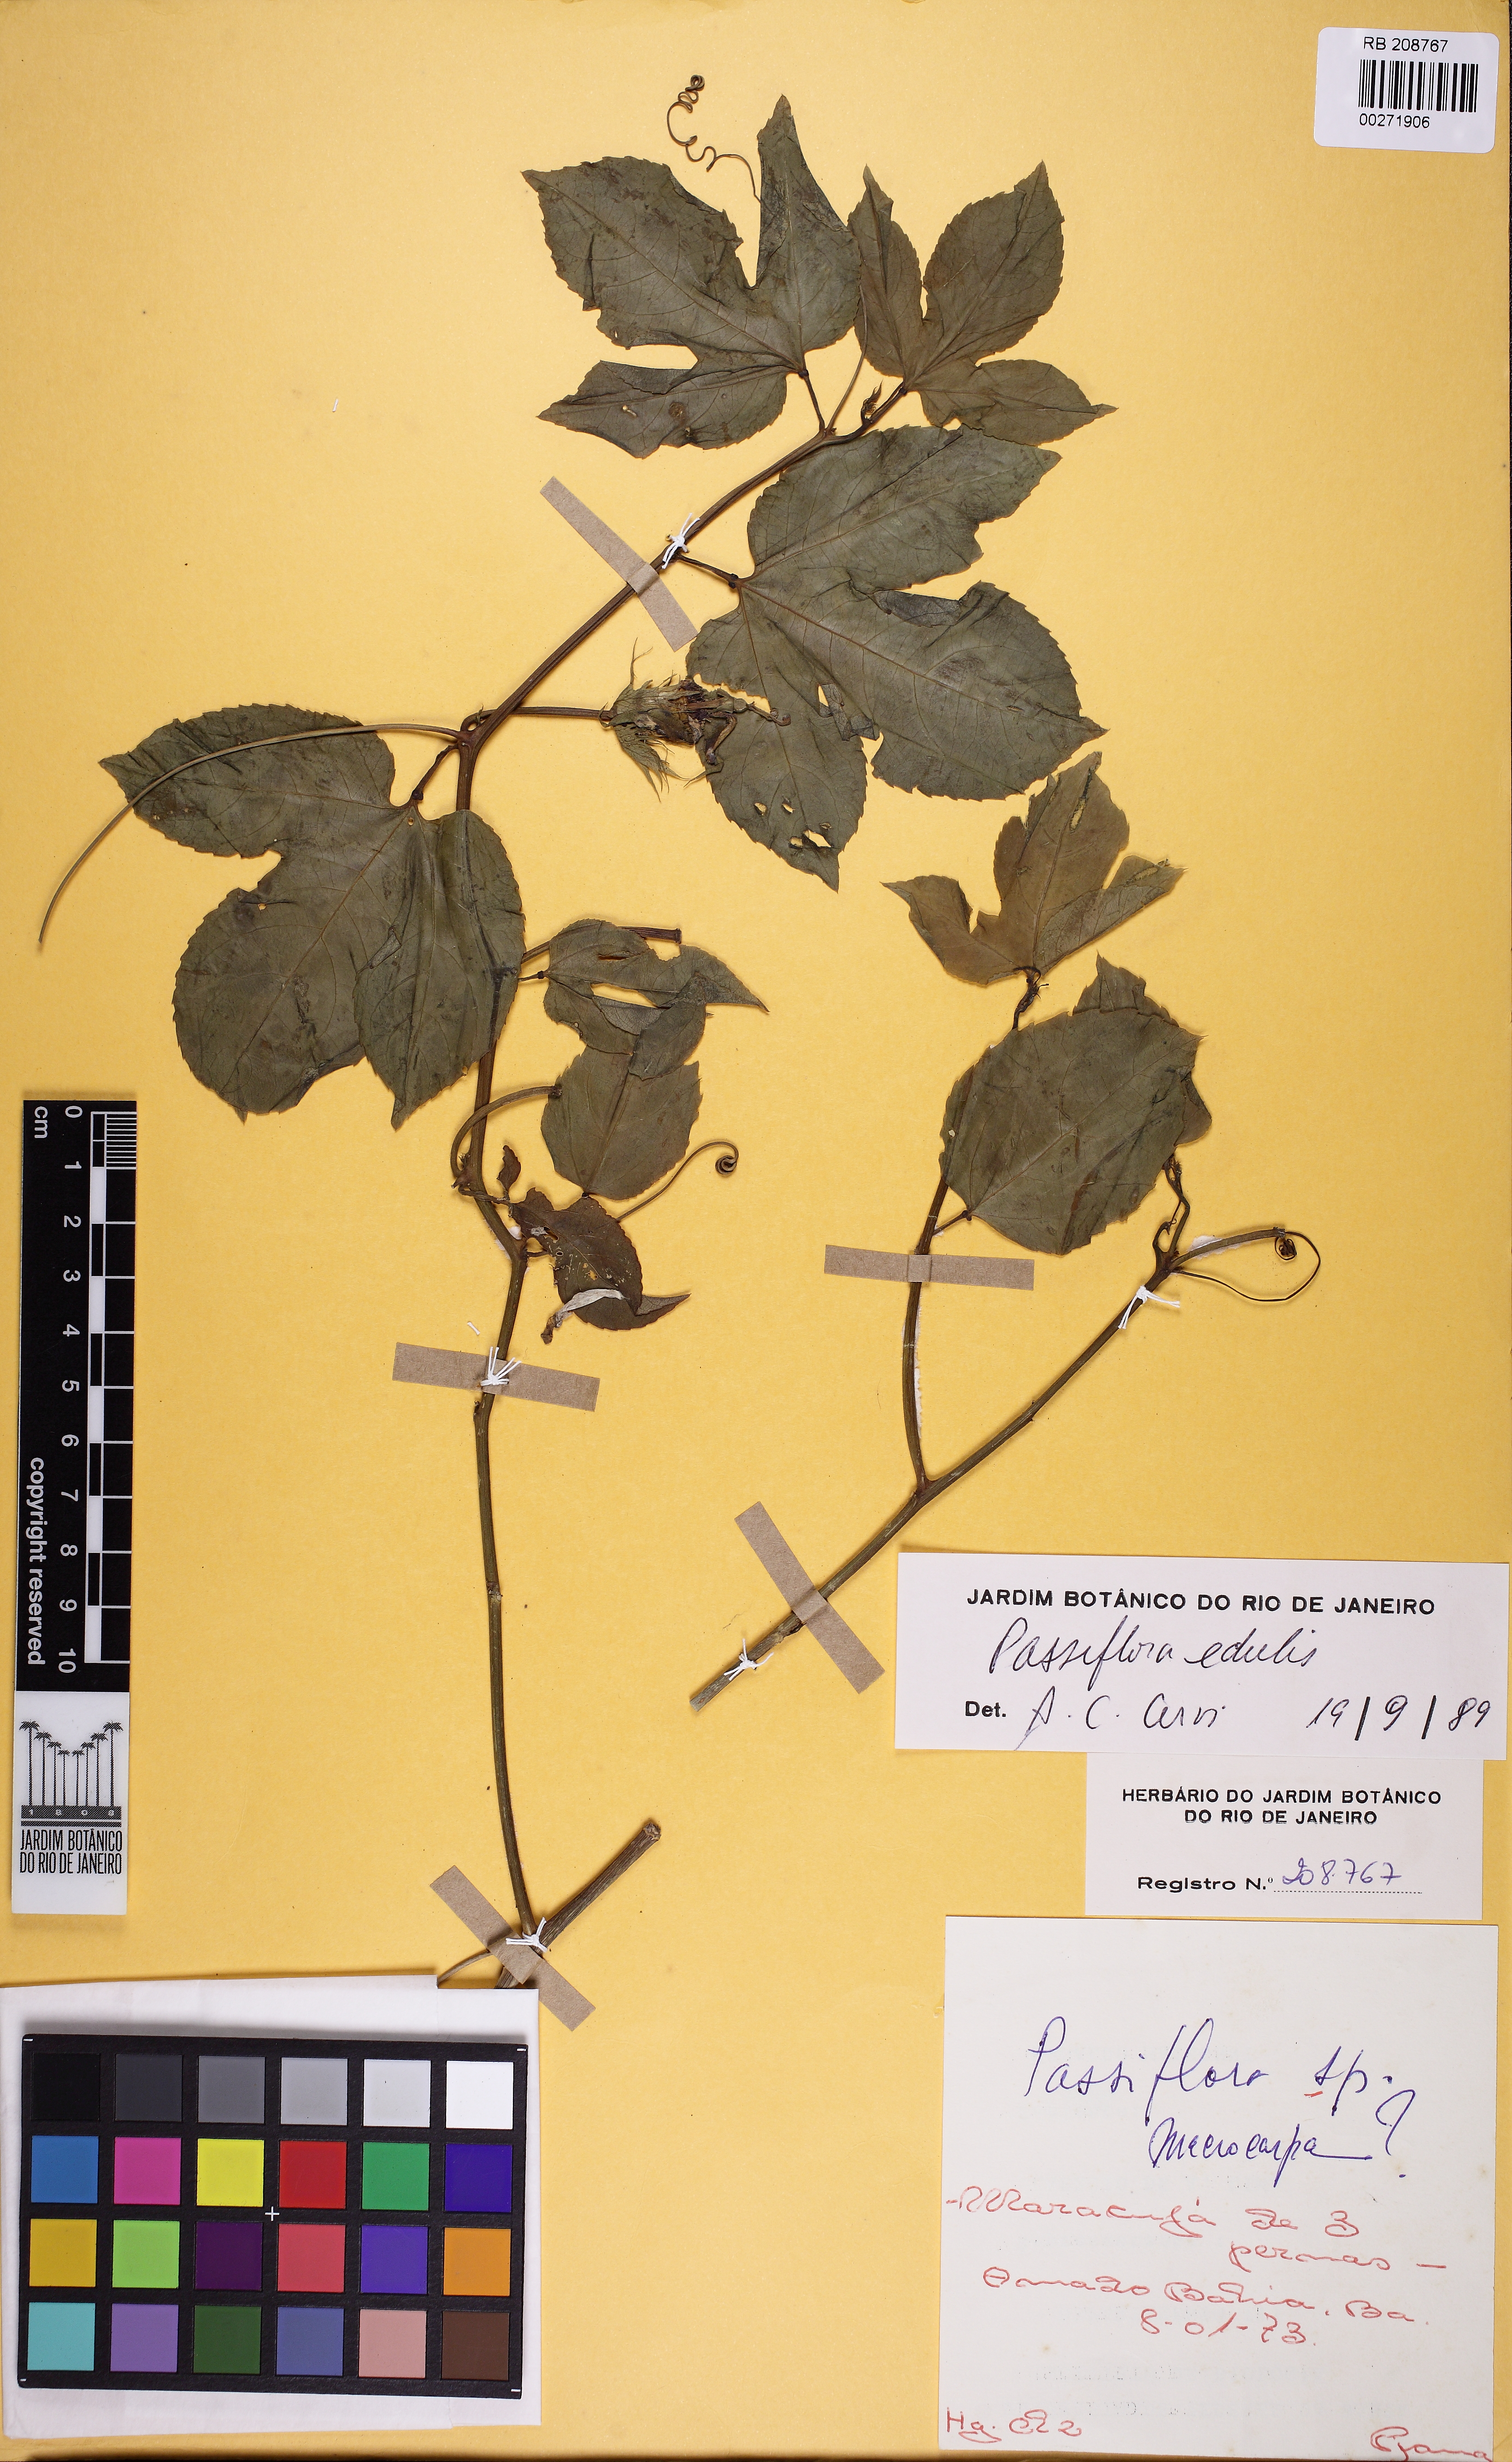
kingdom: Plantae
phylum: Tracheophyta
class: Magnoliopsida
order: Malpighiales
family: Passifloraceae
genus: Passiflora
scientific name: Passiflora edulis
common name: Purple granadilla
